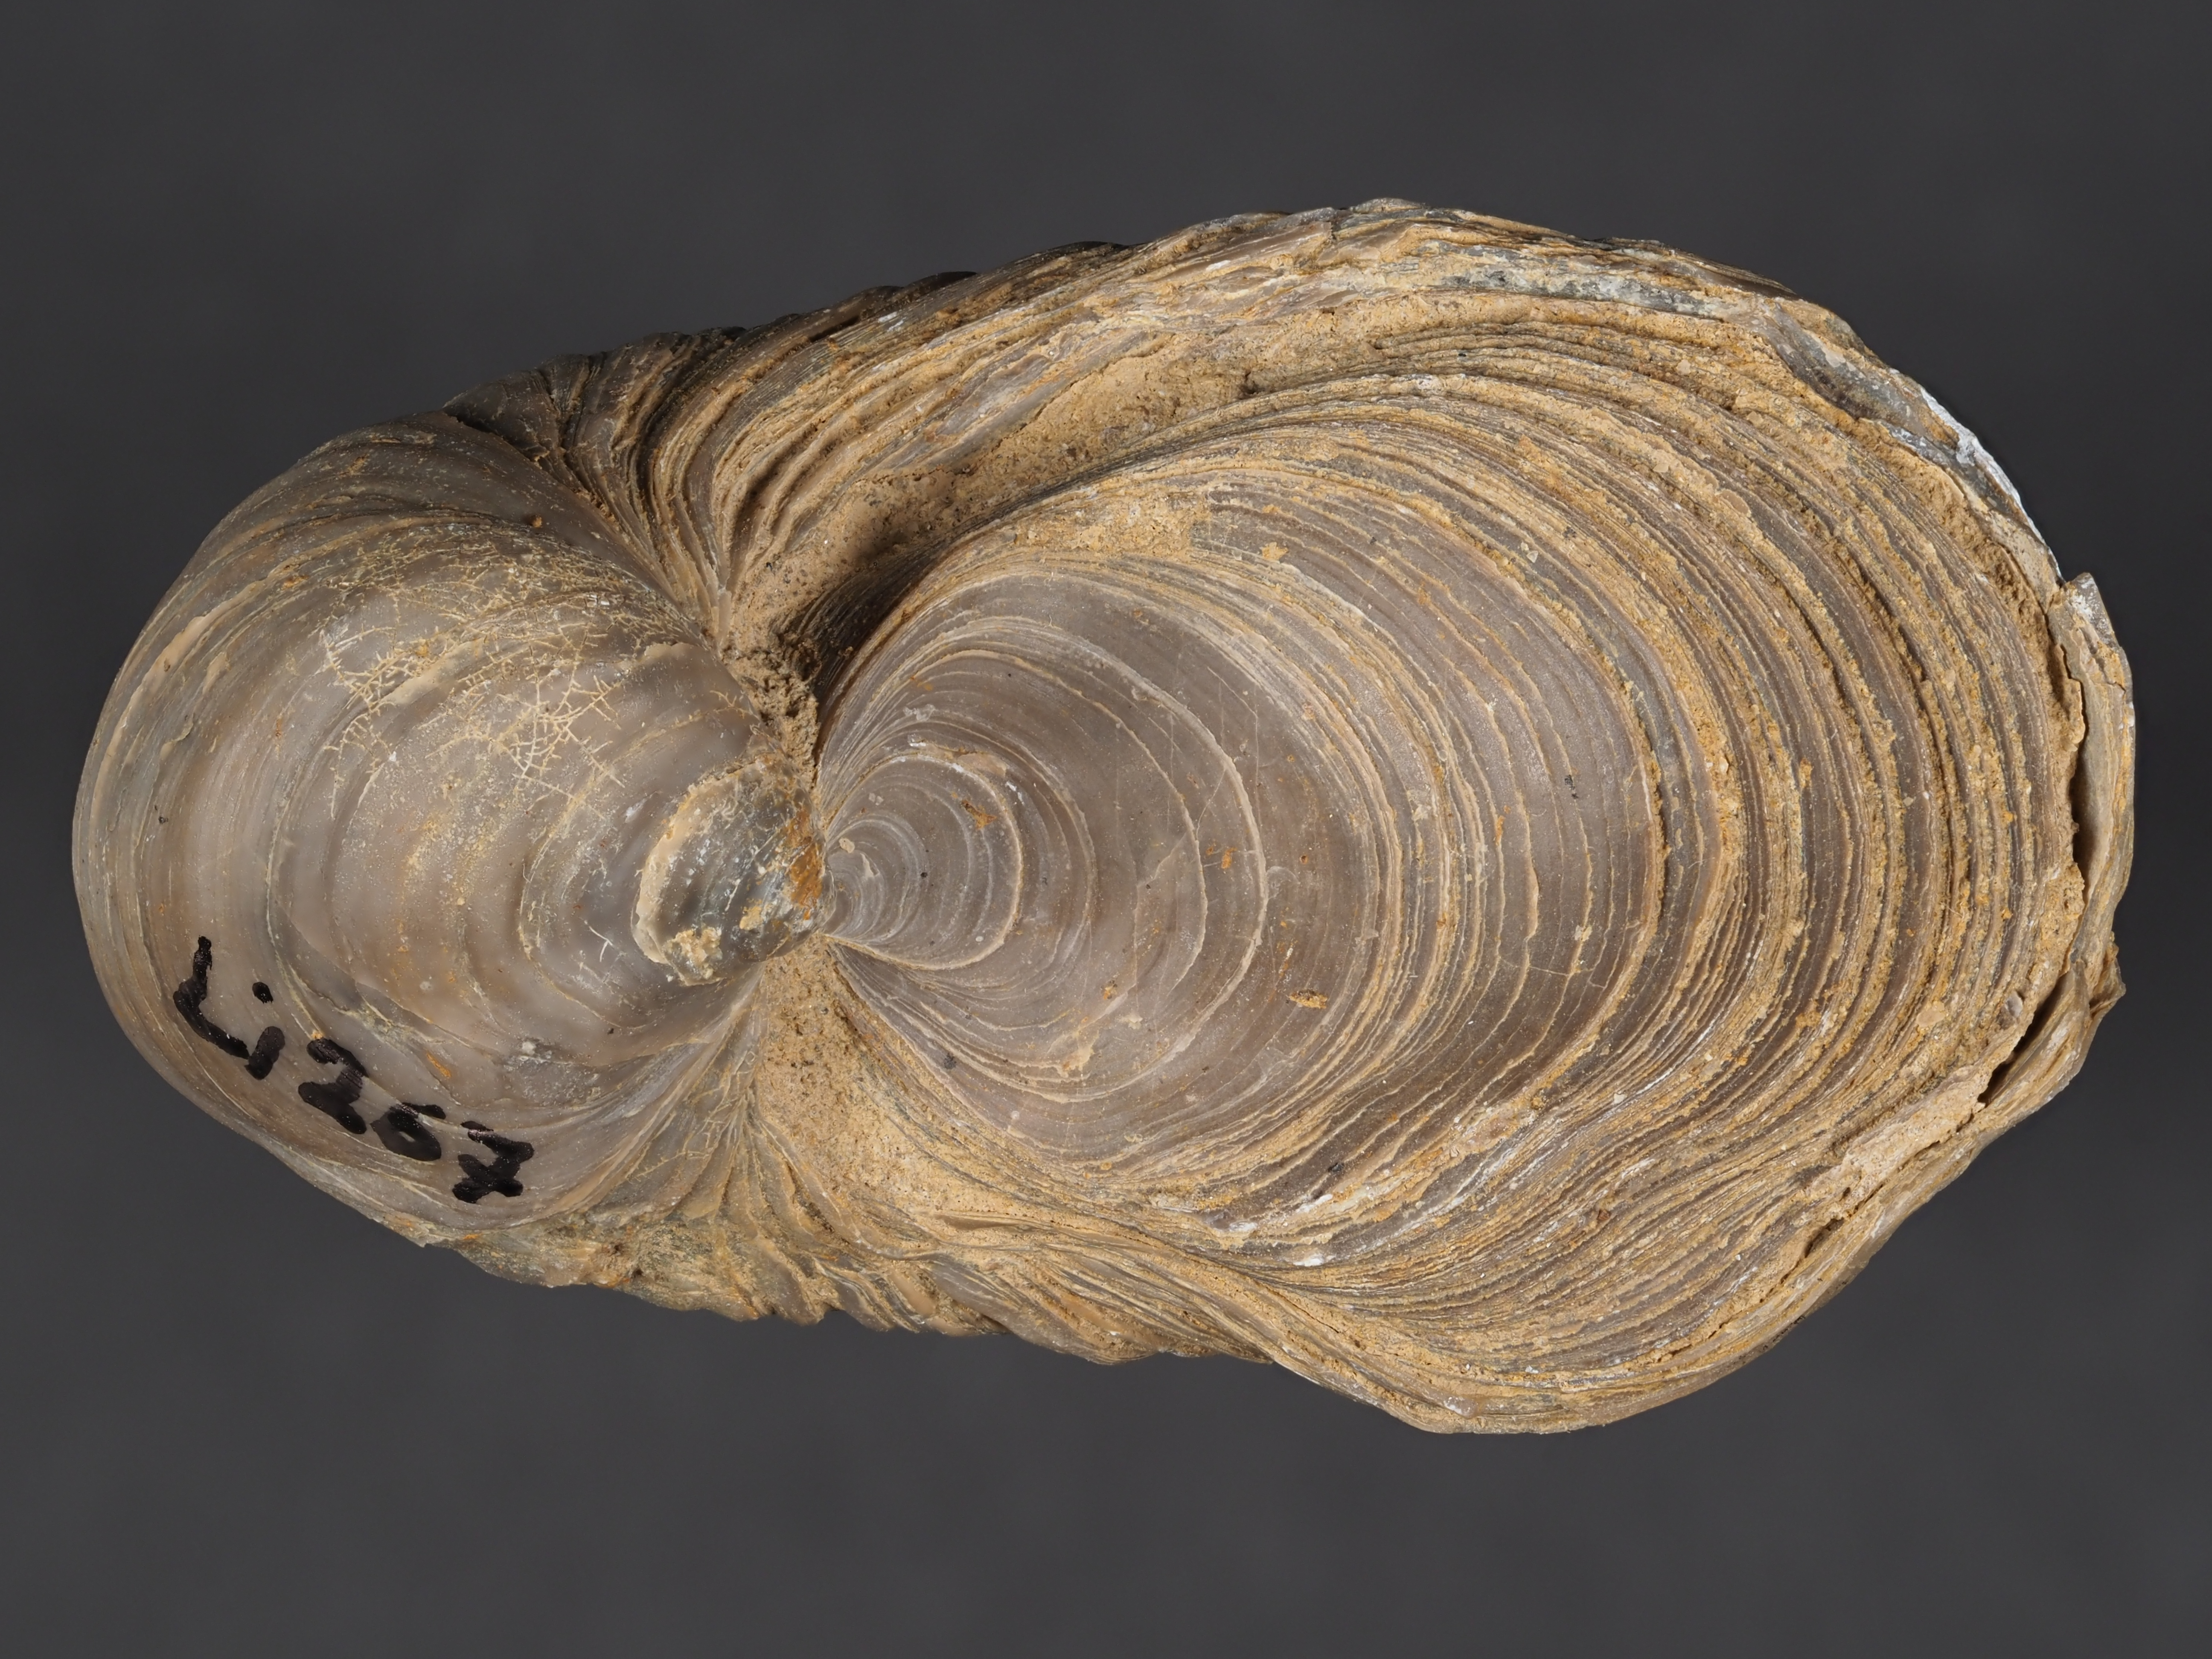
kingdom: Animalia
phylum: Mollusca
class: Bivalvia
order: Ostreida
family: Gryphaeidae
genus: Gryphaea
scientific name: Gryphaea arcuata
